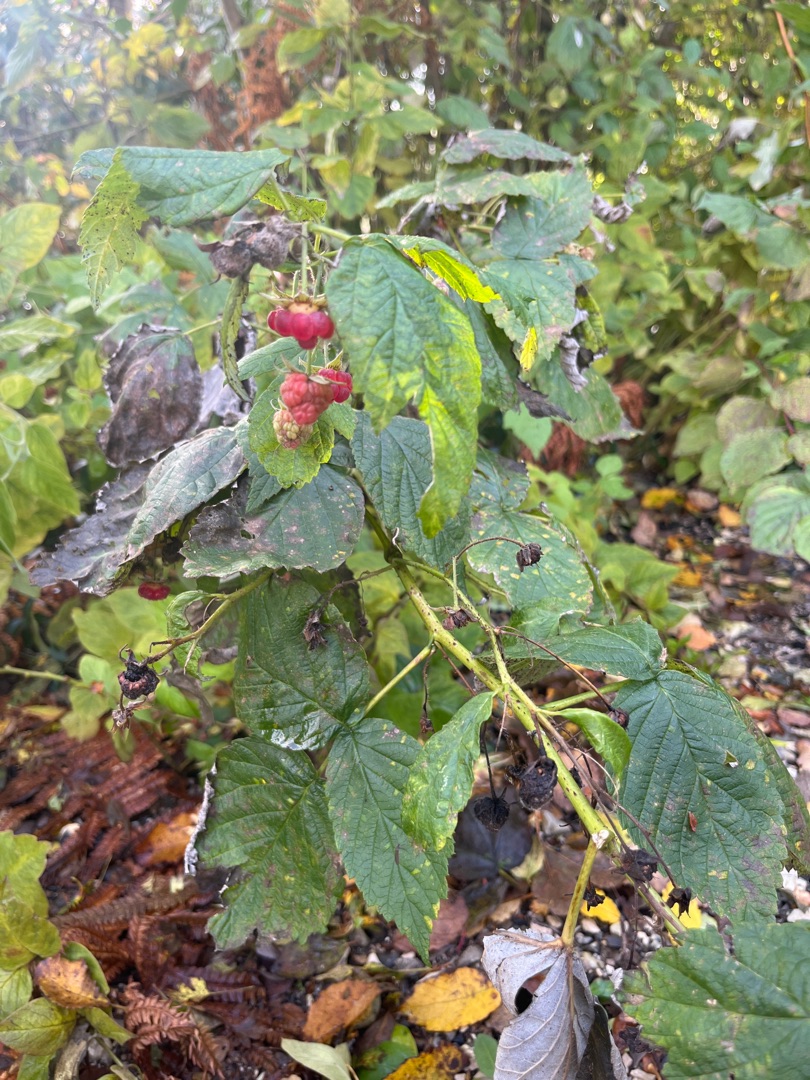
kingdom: Plantae
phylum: Tracheophyta
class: Magnoliopsida
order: Rosales
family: Rosaceae
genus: Rubus
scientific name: Rubus idaeus
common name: Hindbær
